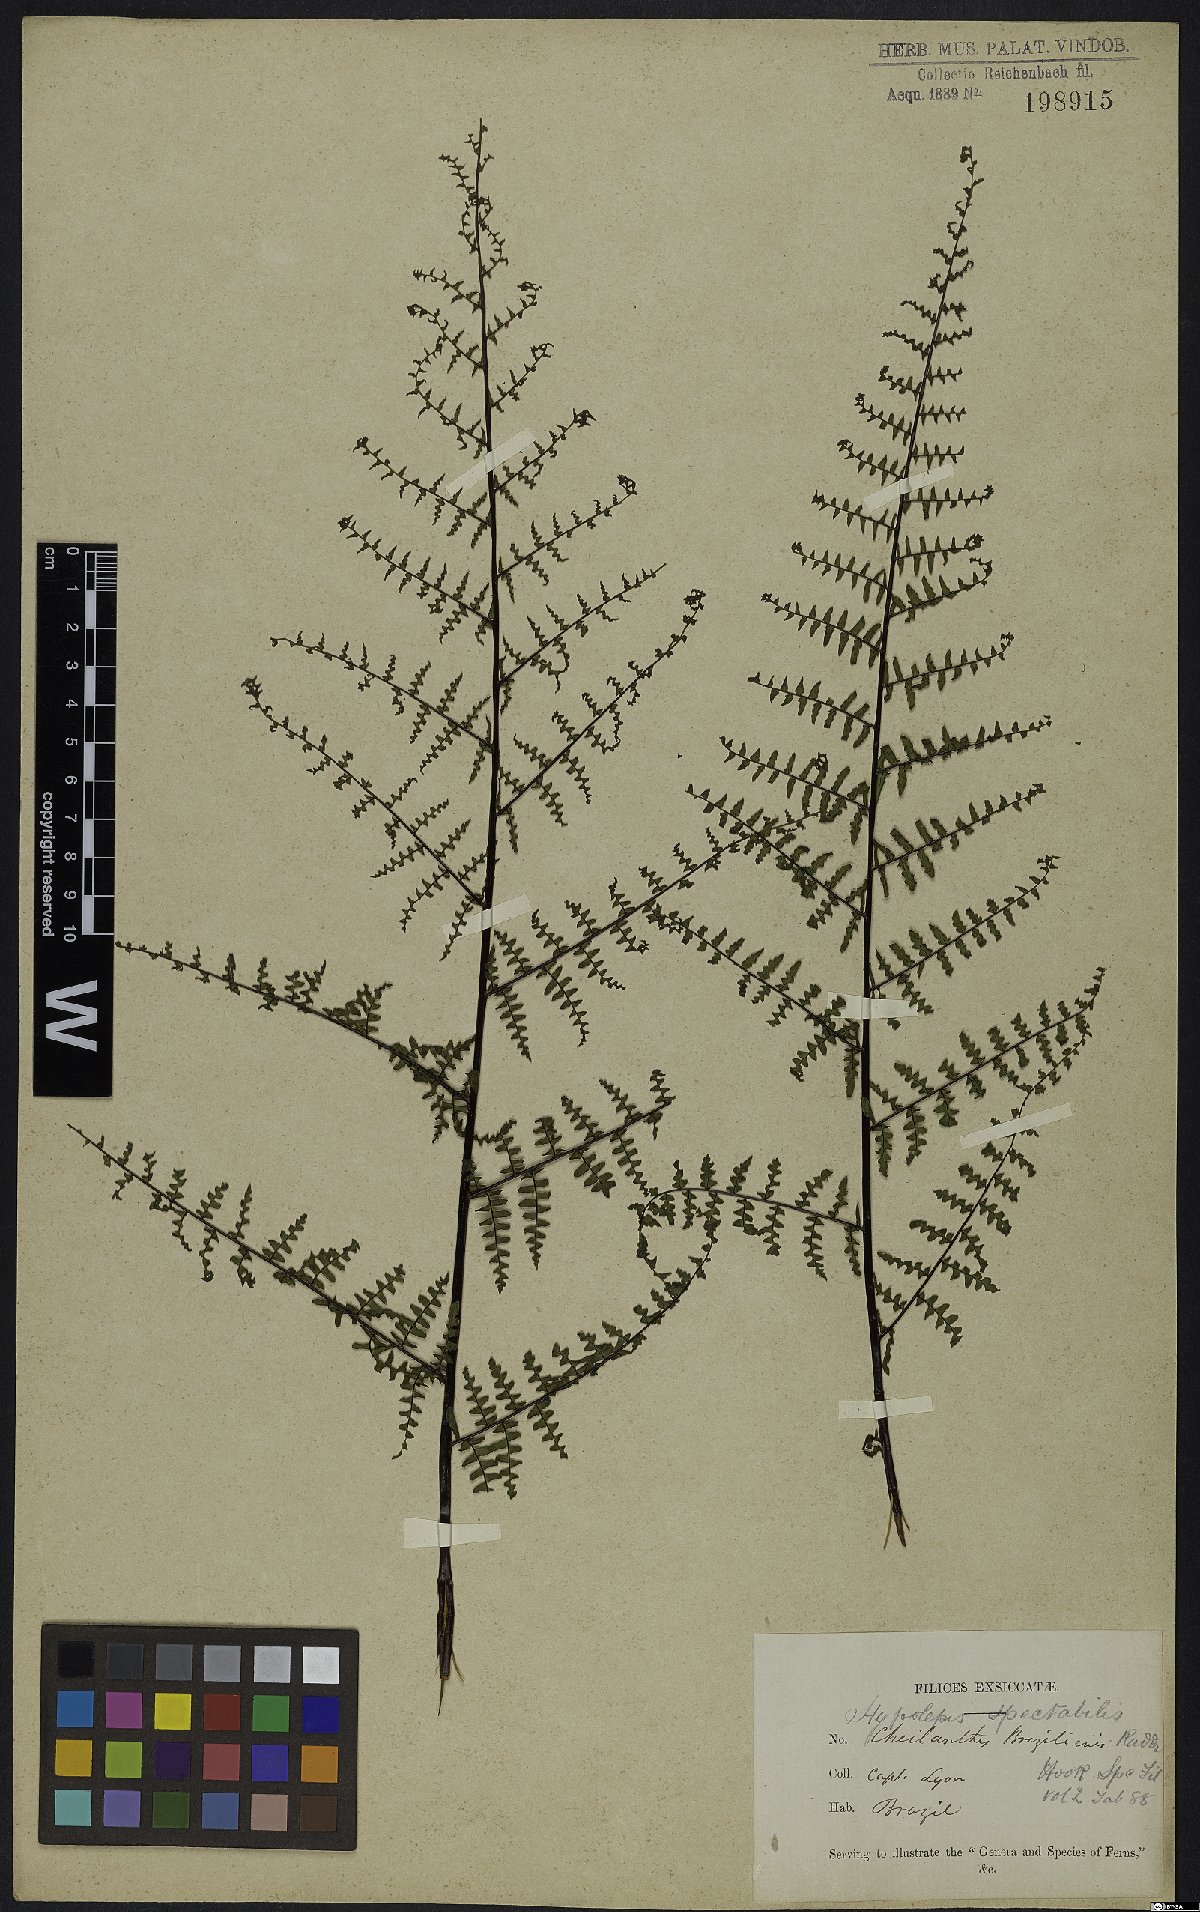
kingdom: Plantae
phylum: Tracheophyta
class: Polypodiopsida
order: Polypodiales
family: Pteridaceae
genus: Adiantopsis
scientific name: Adiantopsis chlorophylla
